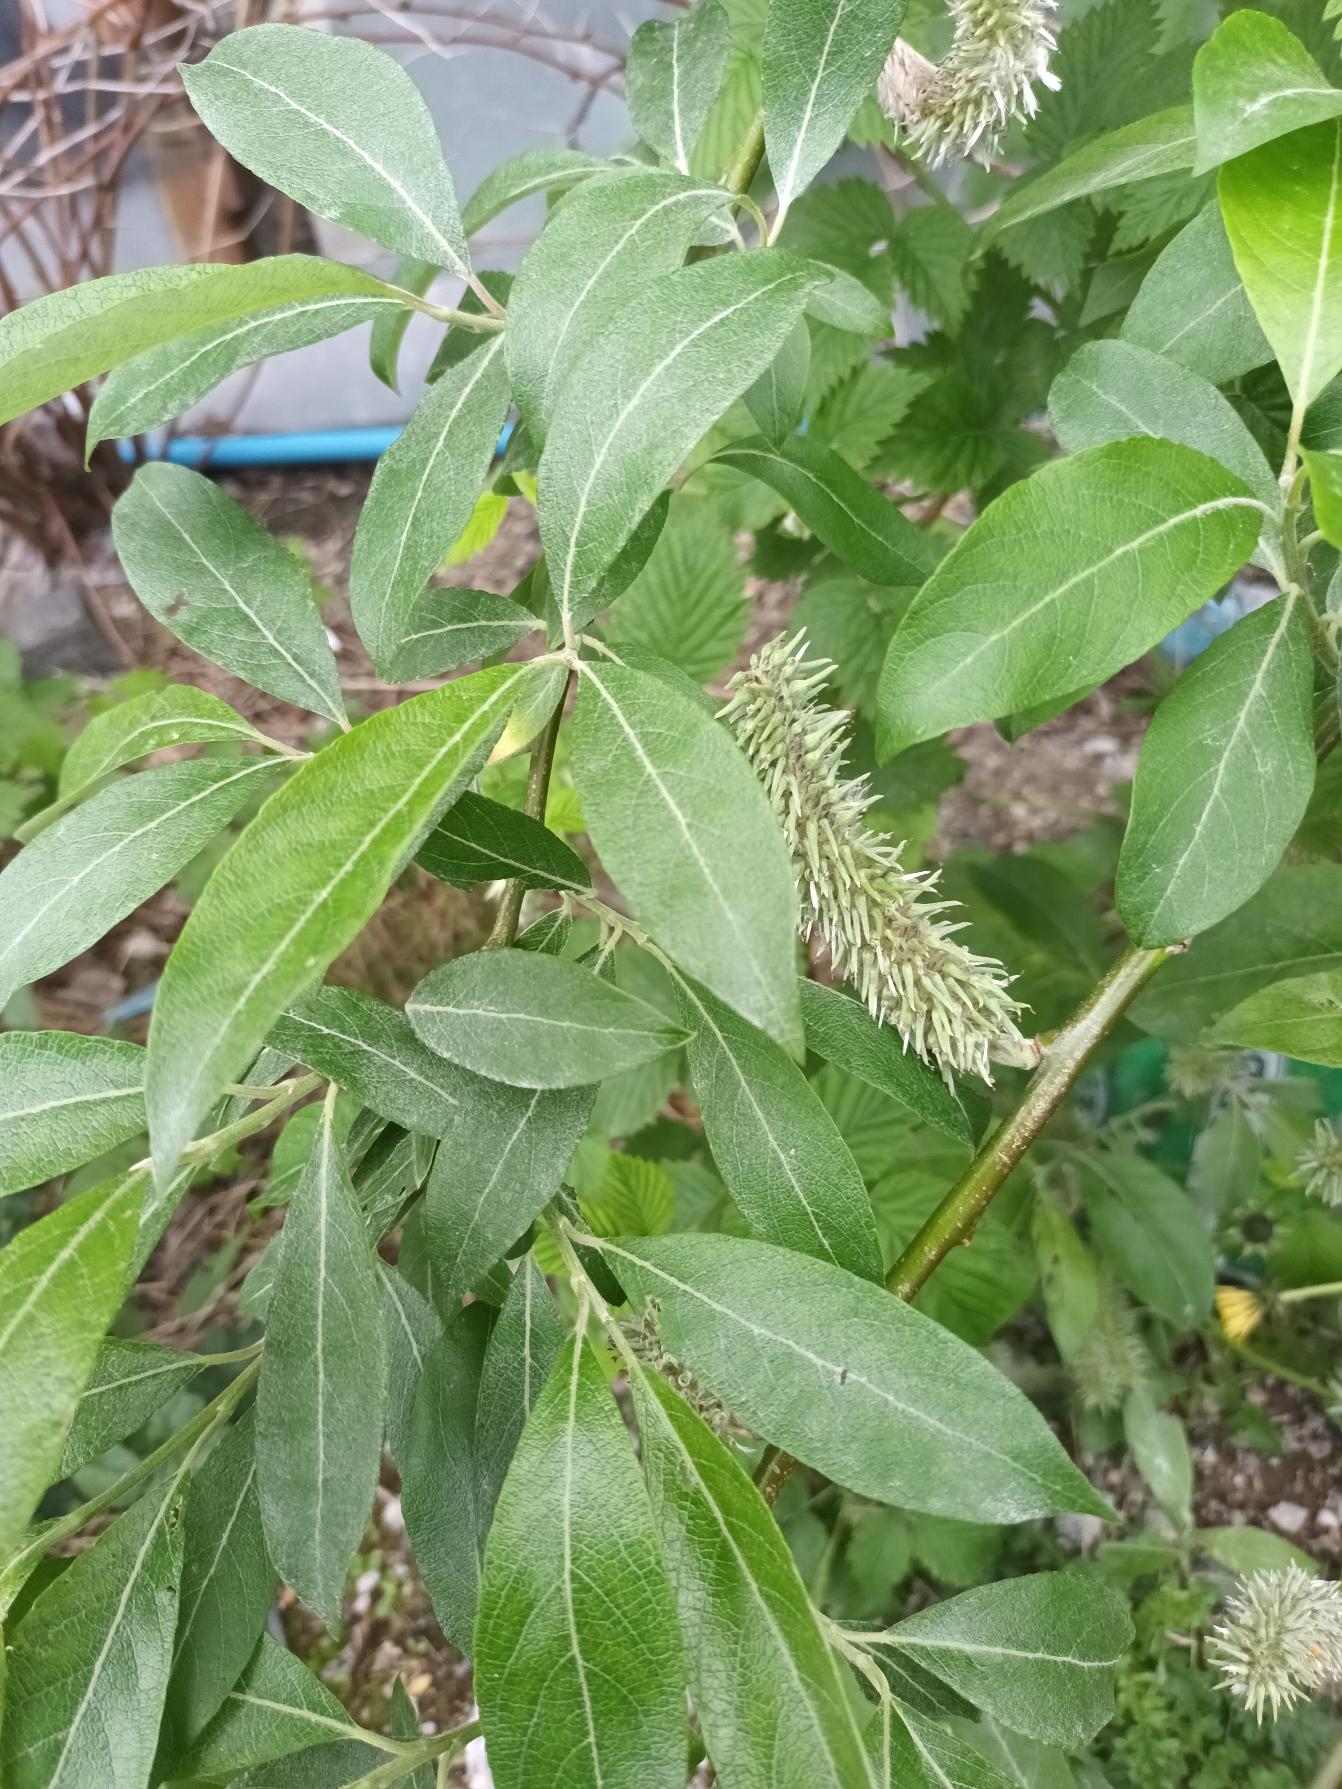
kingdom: Plantae
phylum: Tracheophyta
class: Magnoliopsida
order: Malpighiales
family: Salicaceae
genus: Salix
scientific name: Salix smithiana
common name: Lancet-pil
